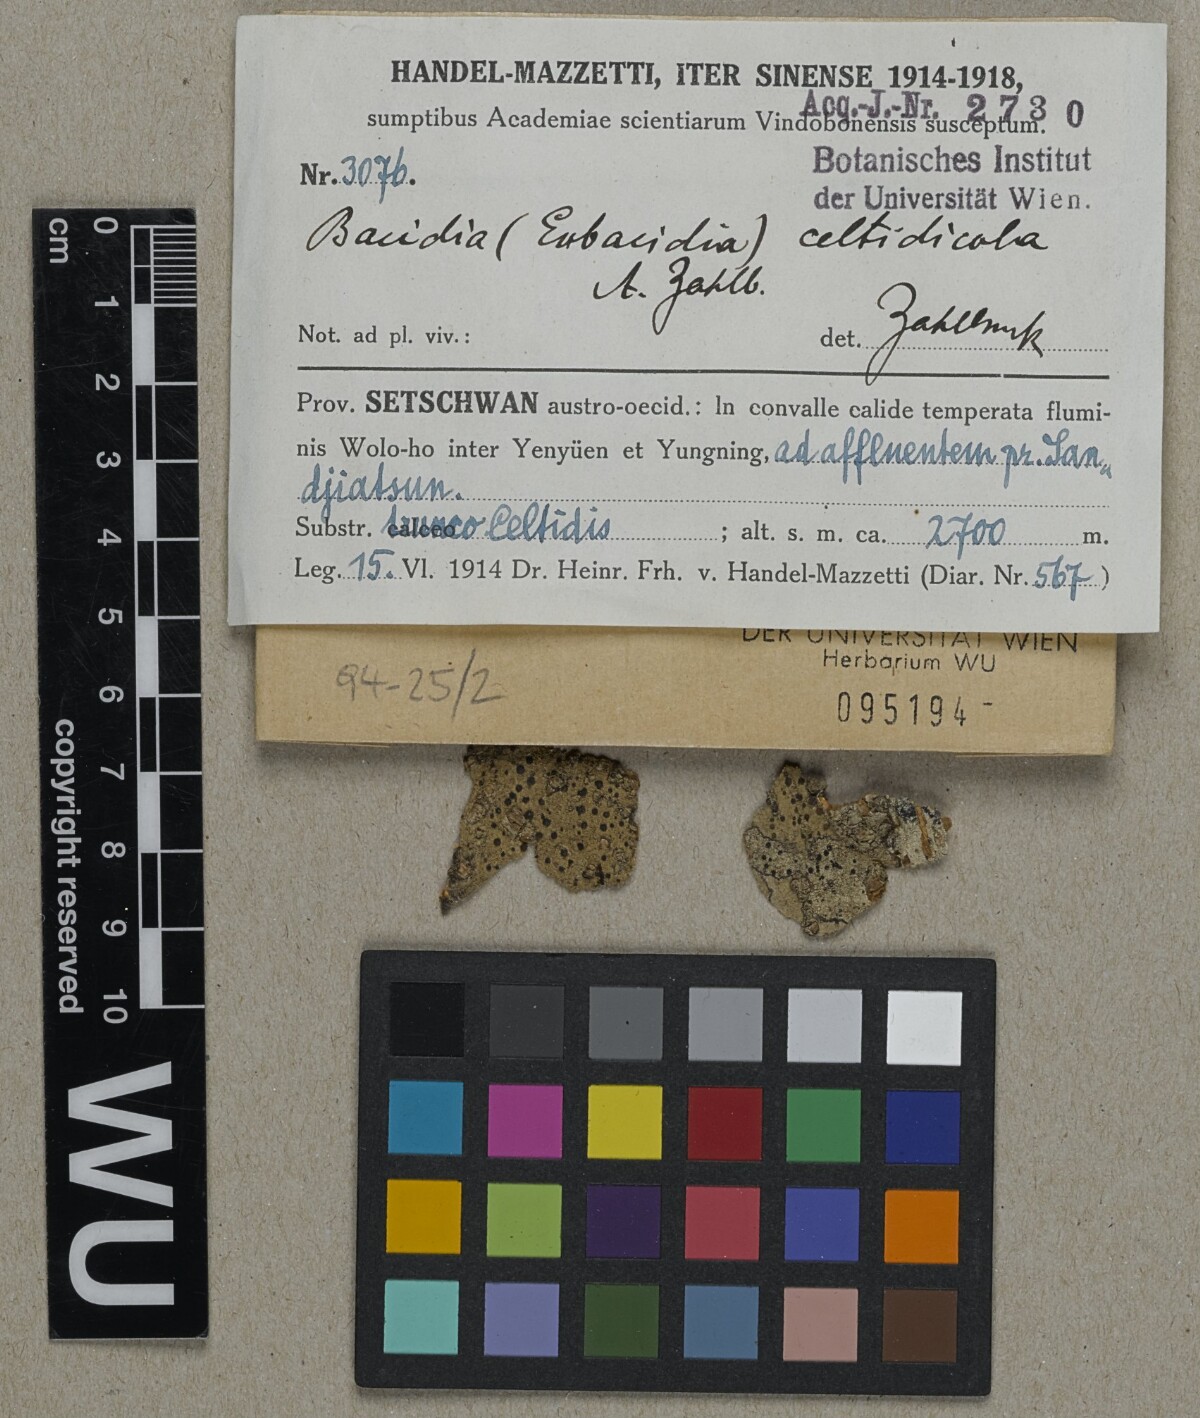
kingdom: Fungi
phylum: Ascomycota
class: Lecanoromycetes
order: Lecanorales
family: Ramalinaceae
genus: Bacidia
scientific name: Bacidia
